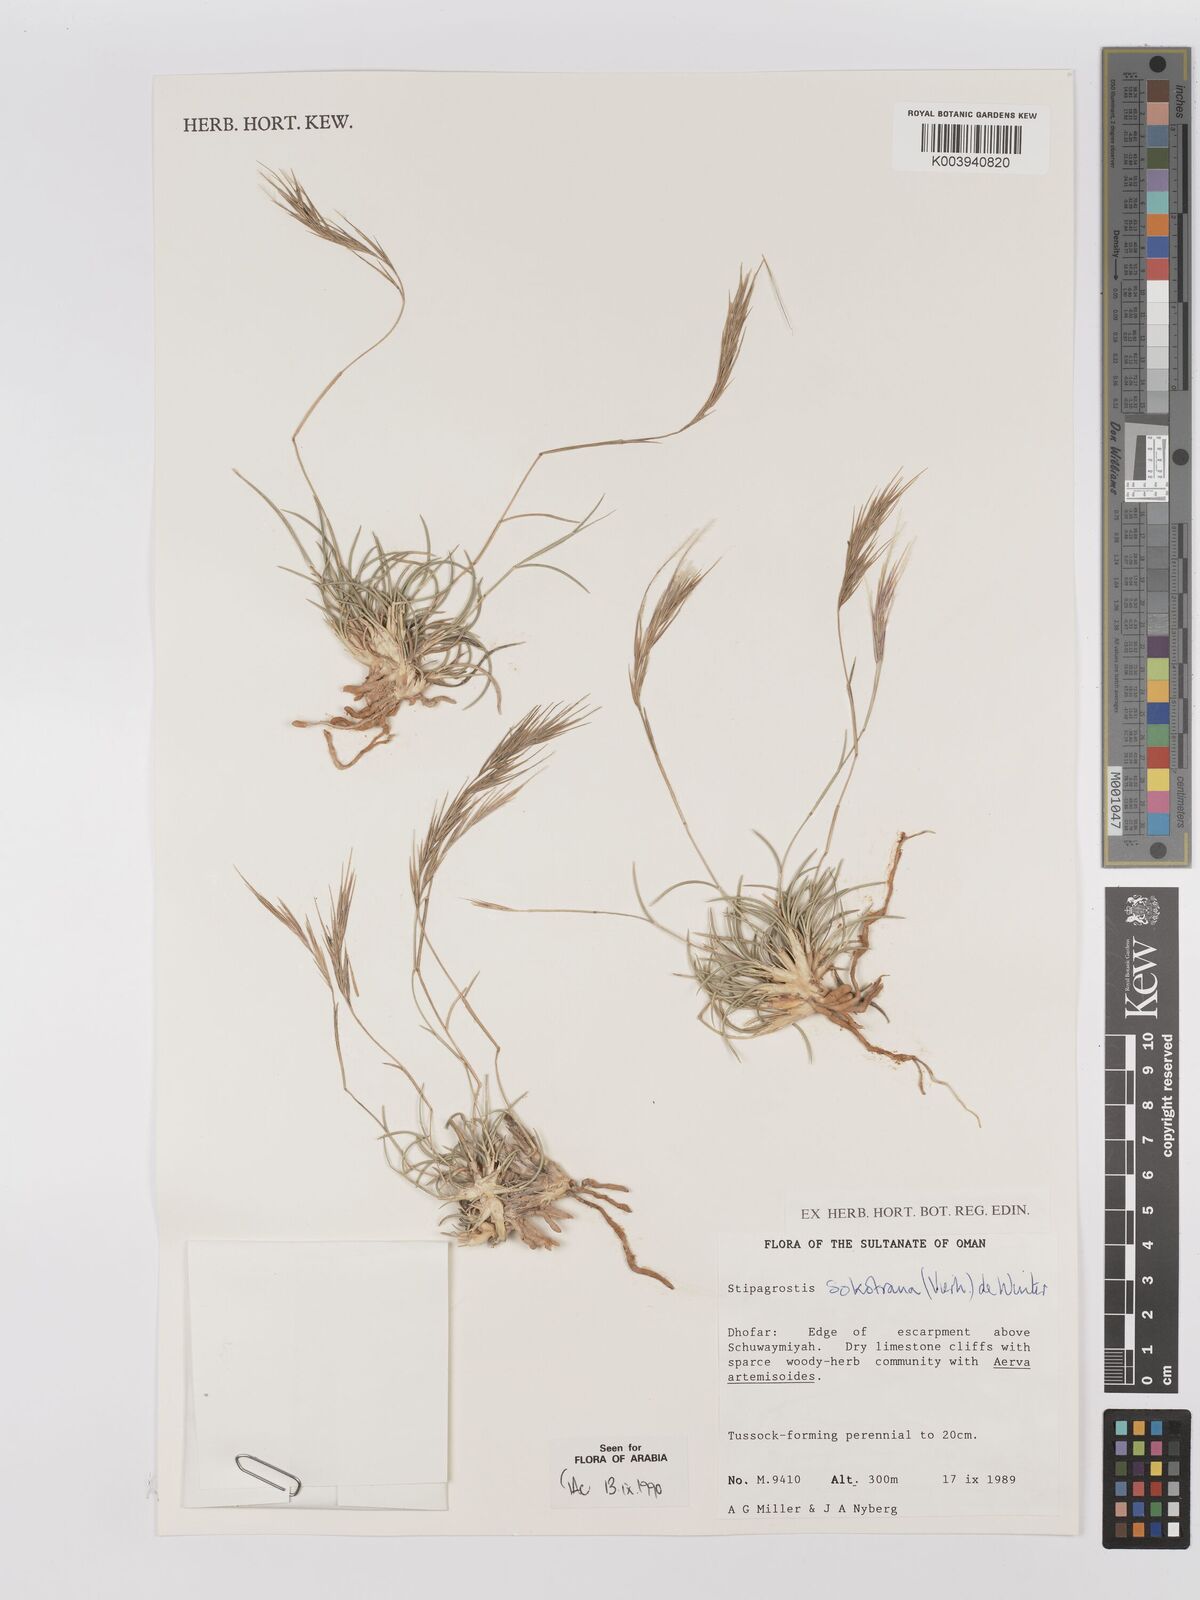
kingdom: Plantae
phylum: Tracheophyta
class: Liliopsida
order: Poales
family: Poaceae
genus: Stipagrostis
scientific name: Stipagrostis sokotrana
